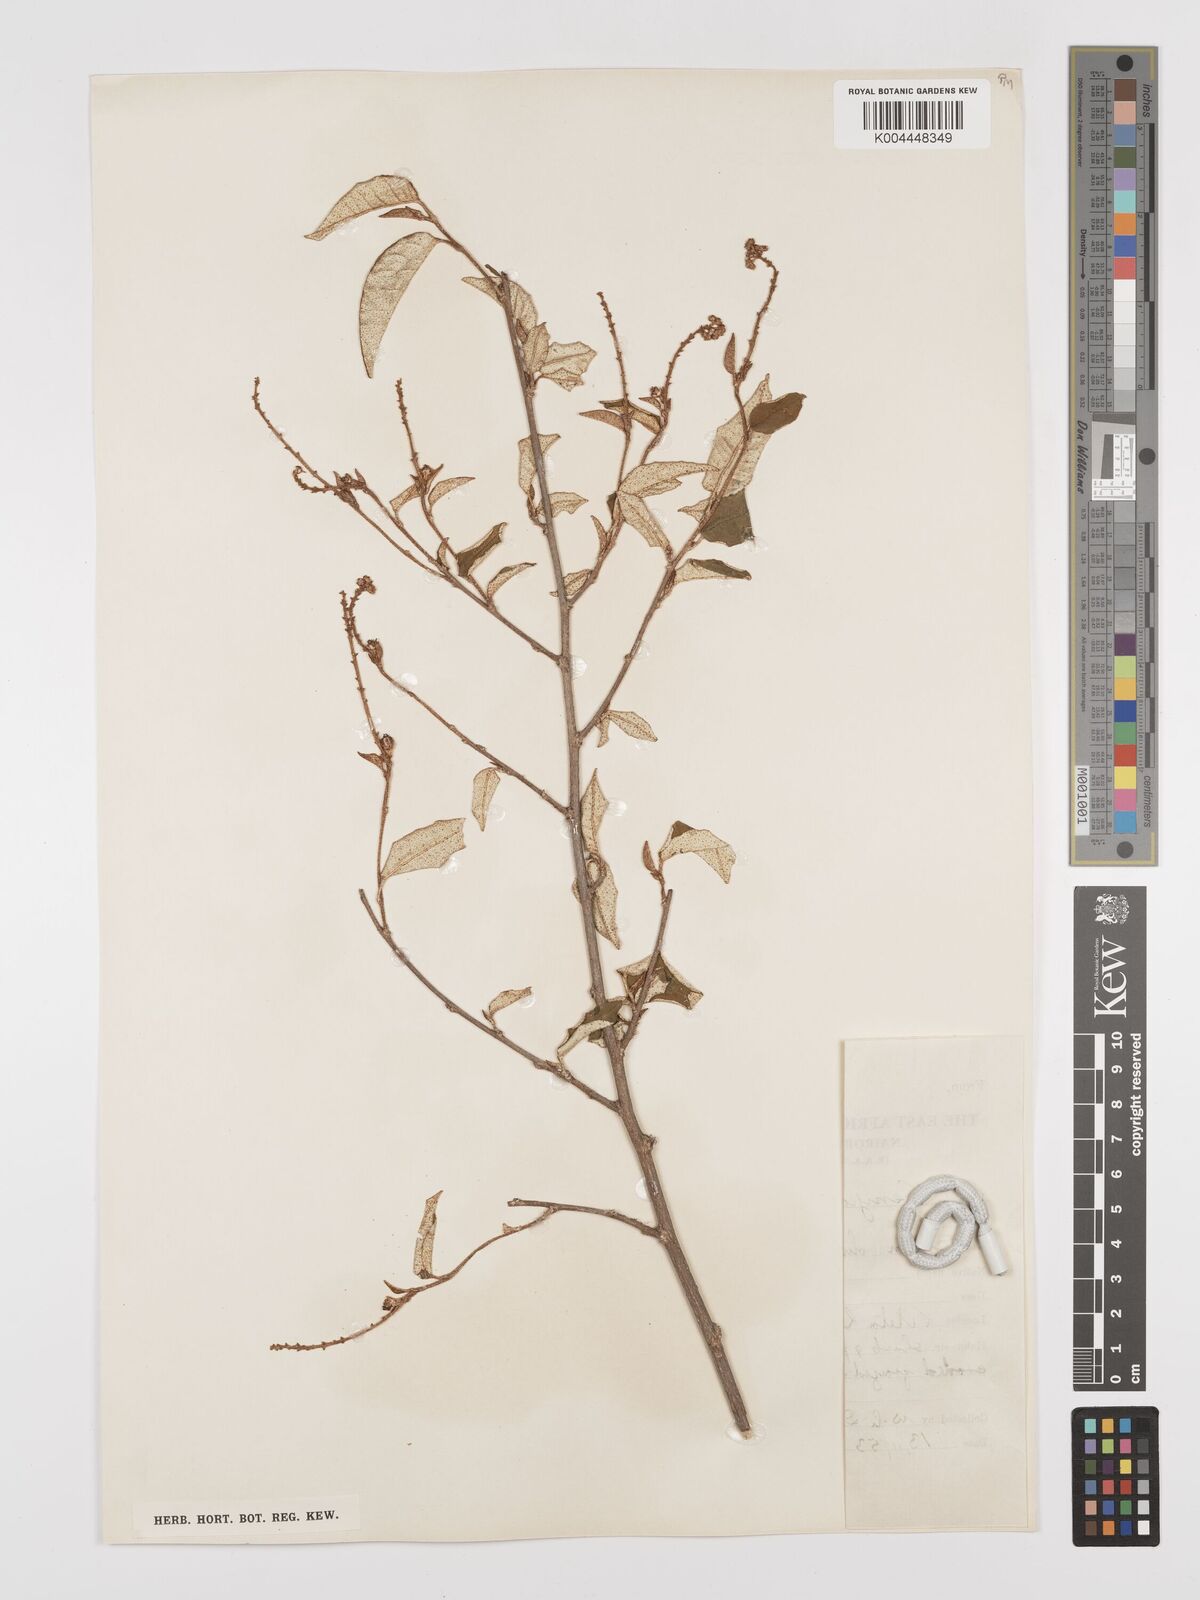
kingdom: Plantae
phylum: Tracheophyta
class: Magnoliopsida
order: Malpighiales
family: Euphorbiaceae
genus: Croton
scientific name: Croton dichogamus
